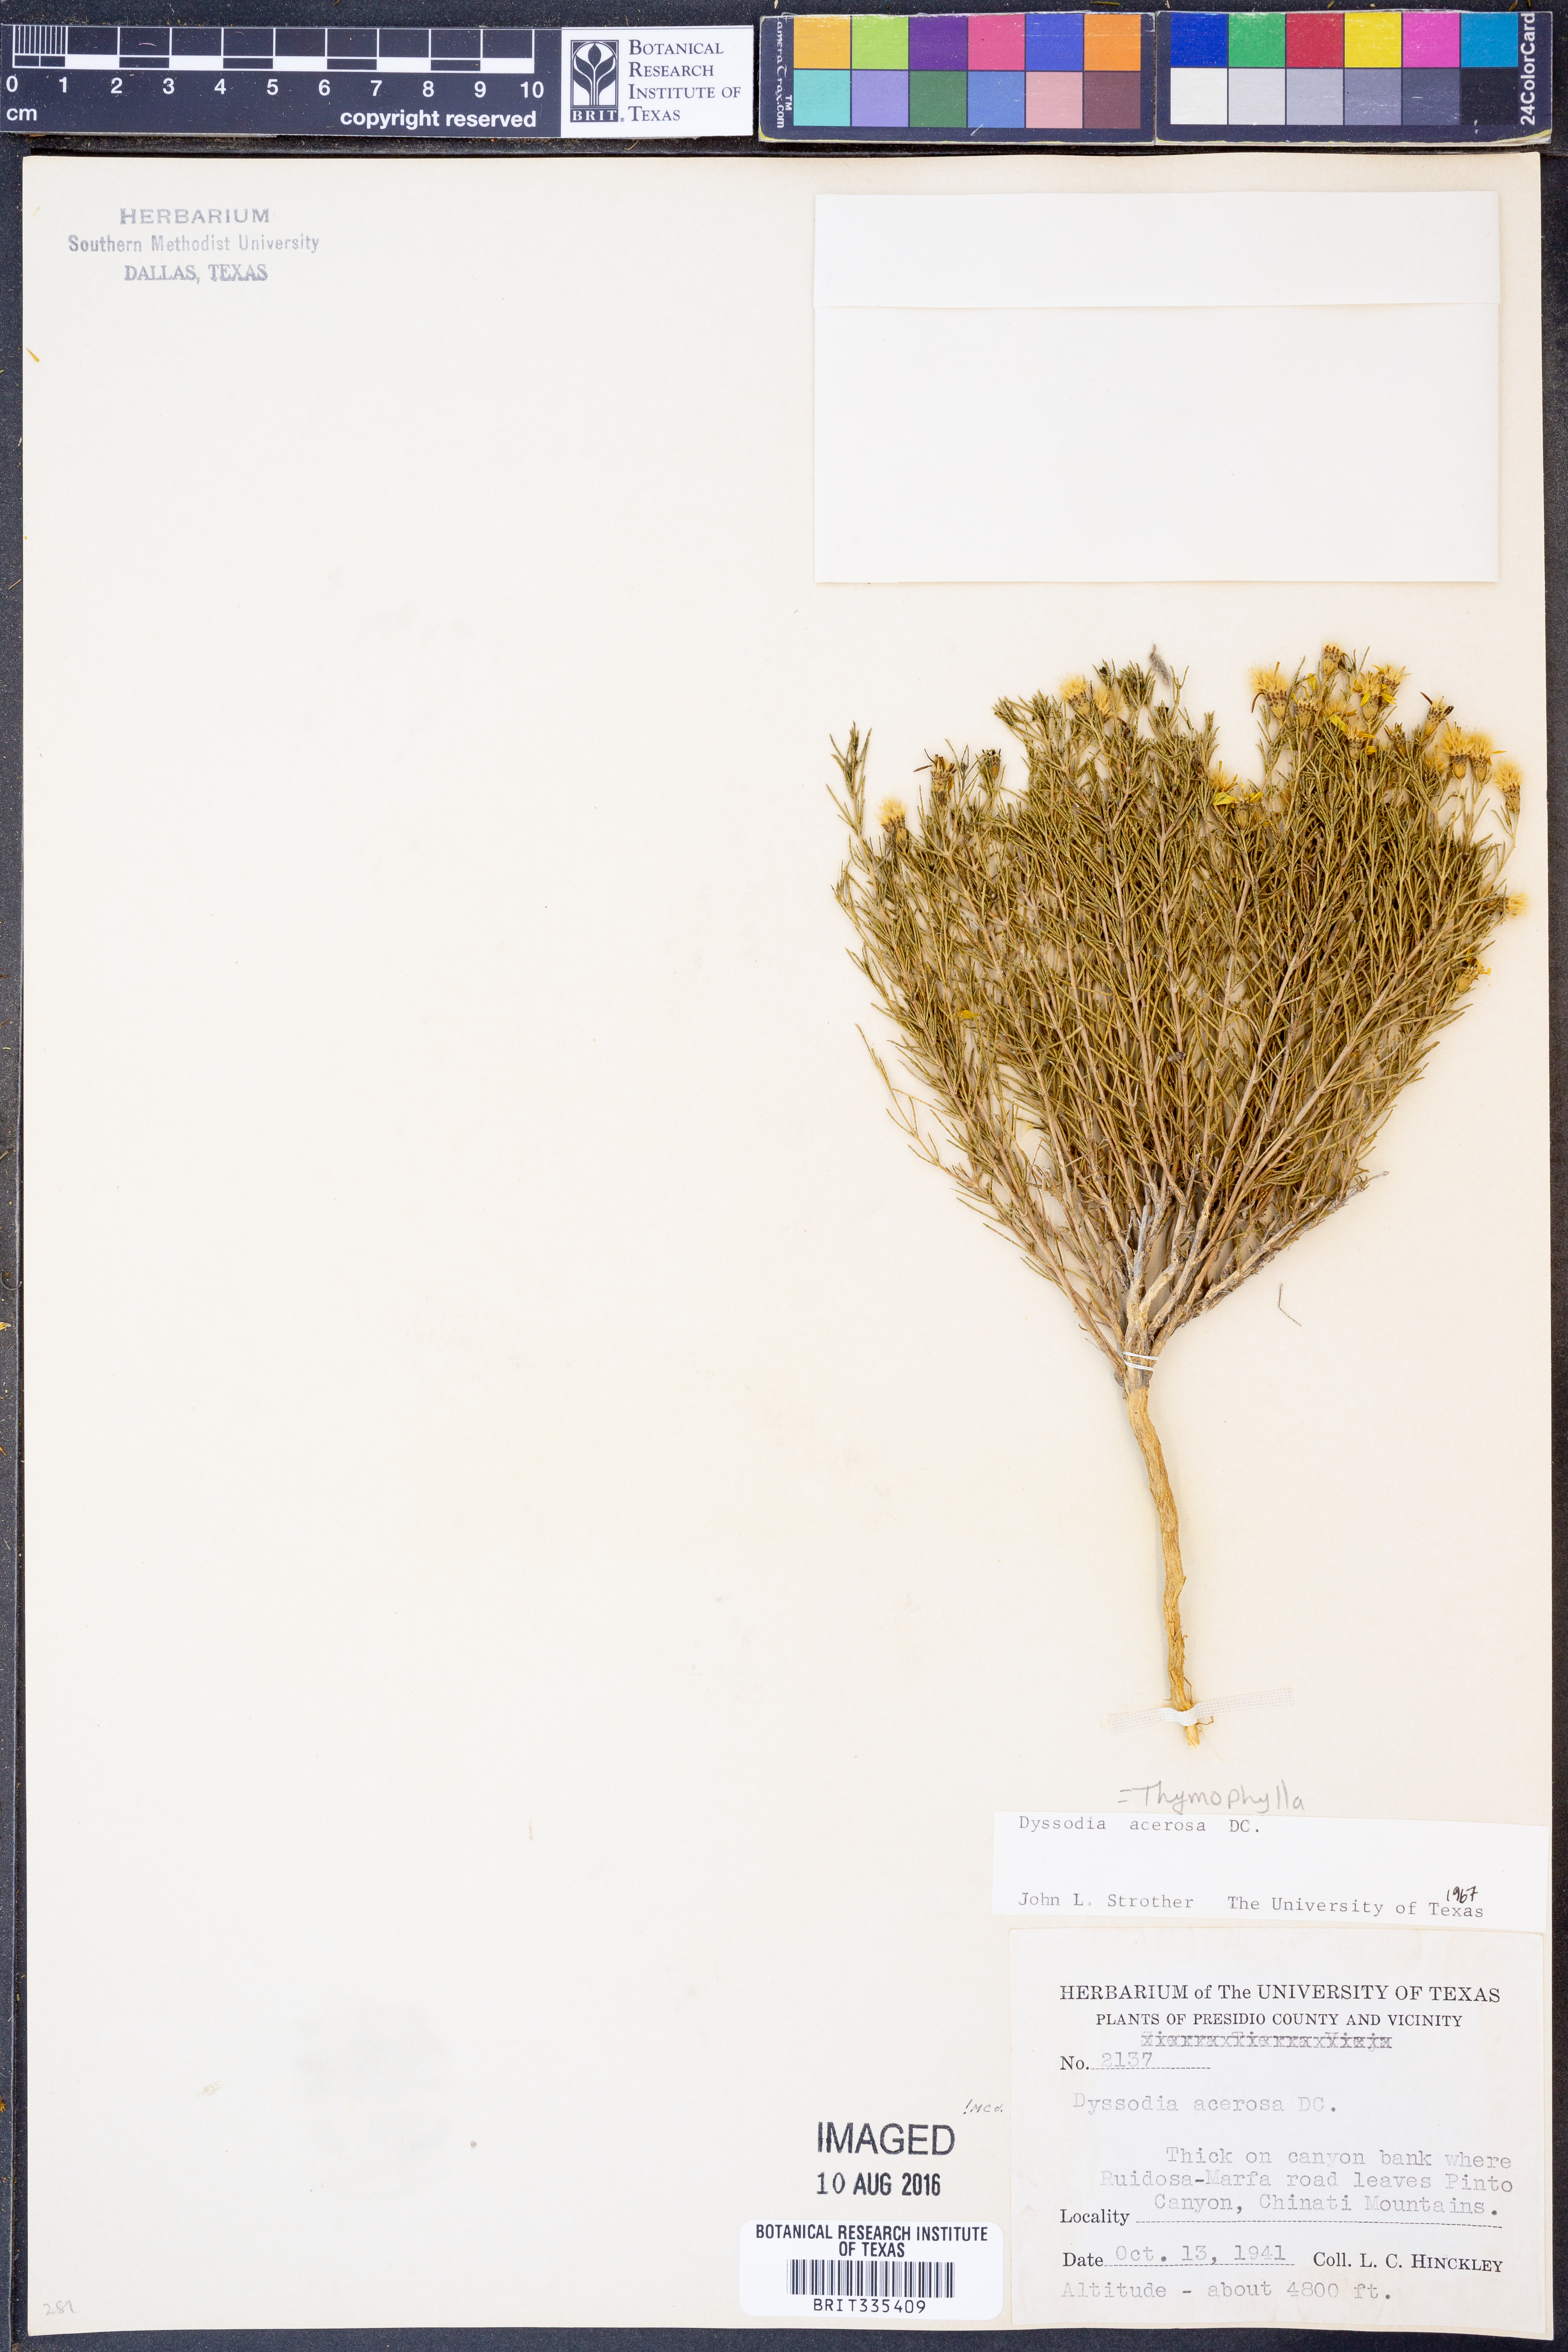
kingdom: Plantae
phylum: Tracheophyta
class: Magnoliopsida
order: Asterales
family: Asteraceae
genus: Thymophylla
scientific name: Thymophylla acerosa
